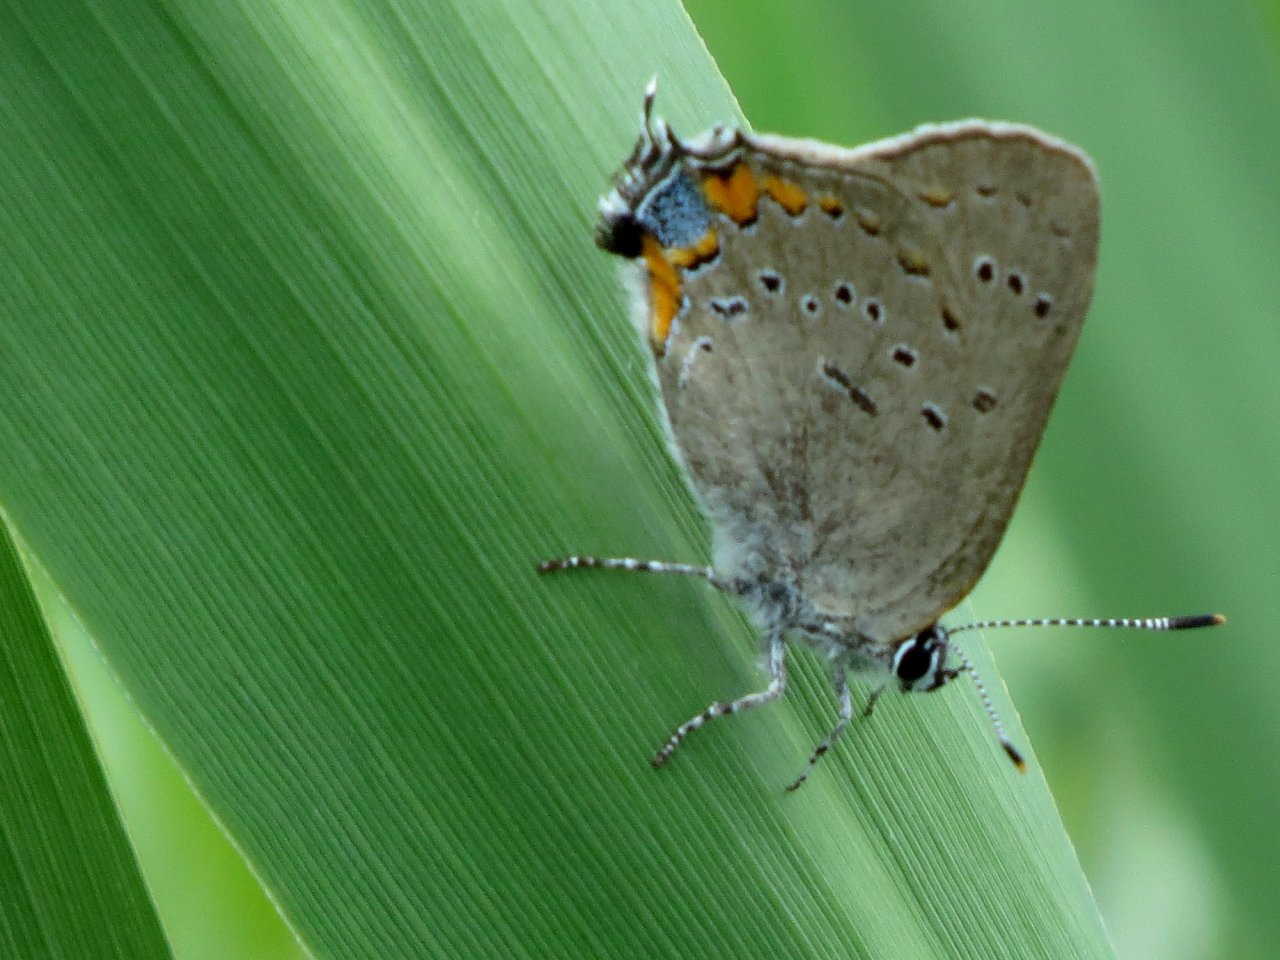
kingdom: Animalia
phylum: Arthropoda
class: Insecta
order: Lepidoptera
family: Lycaenidae
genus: Strymon
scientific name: Strymon acadica
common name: Acadian Hairstreak
